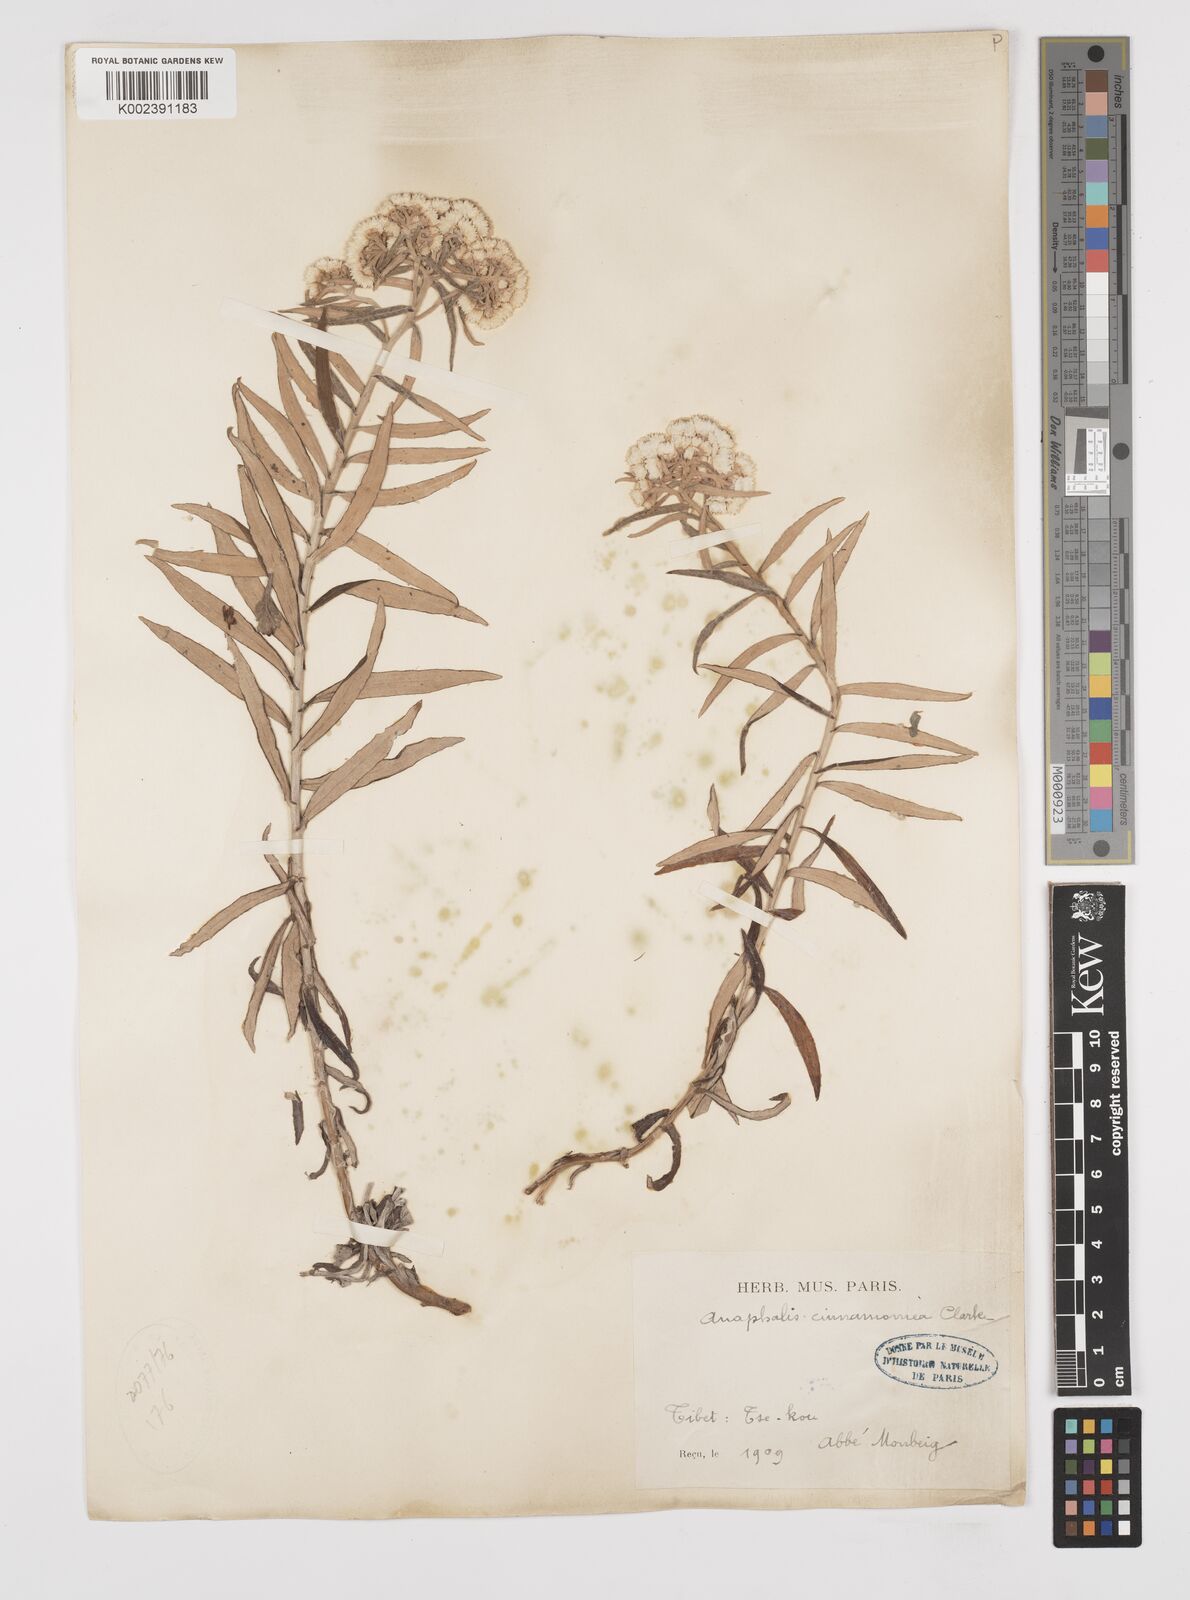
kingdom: Plantae
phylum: Tracheophyta
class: Magnoliopsida
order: Asterales
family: Asteraceae
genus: Anaphalis
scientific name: Anaphalis margaritacea
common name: Pearly everlasting
